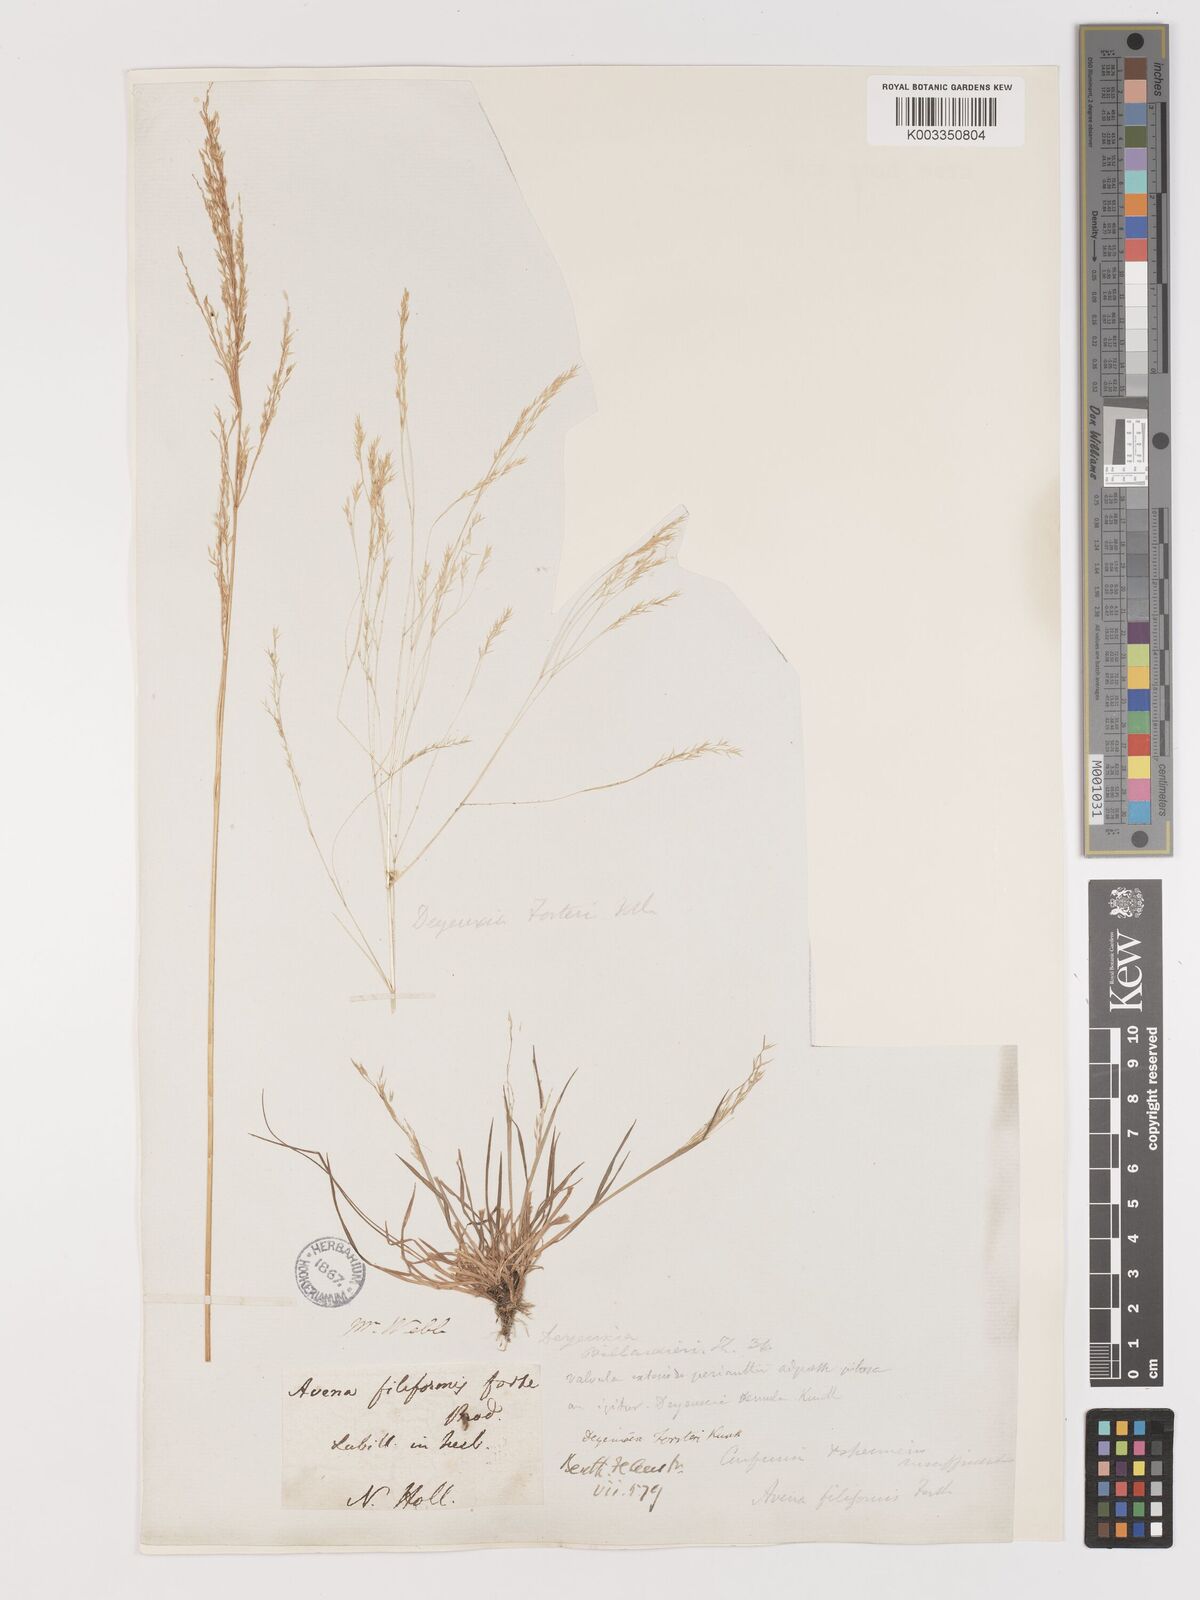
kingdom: Plantae
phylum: Tracheophyta
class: Liliopsida
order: Poales
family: Poaceae
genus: Lachnagrostis
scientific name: Lachnagrostis filiformis
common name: Bentgrass
